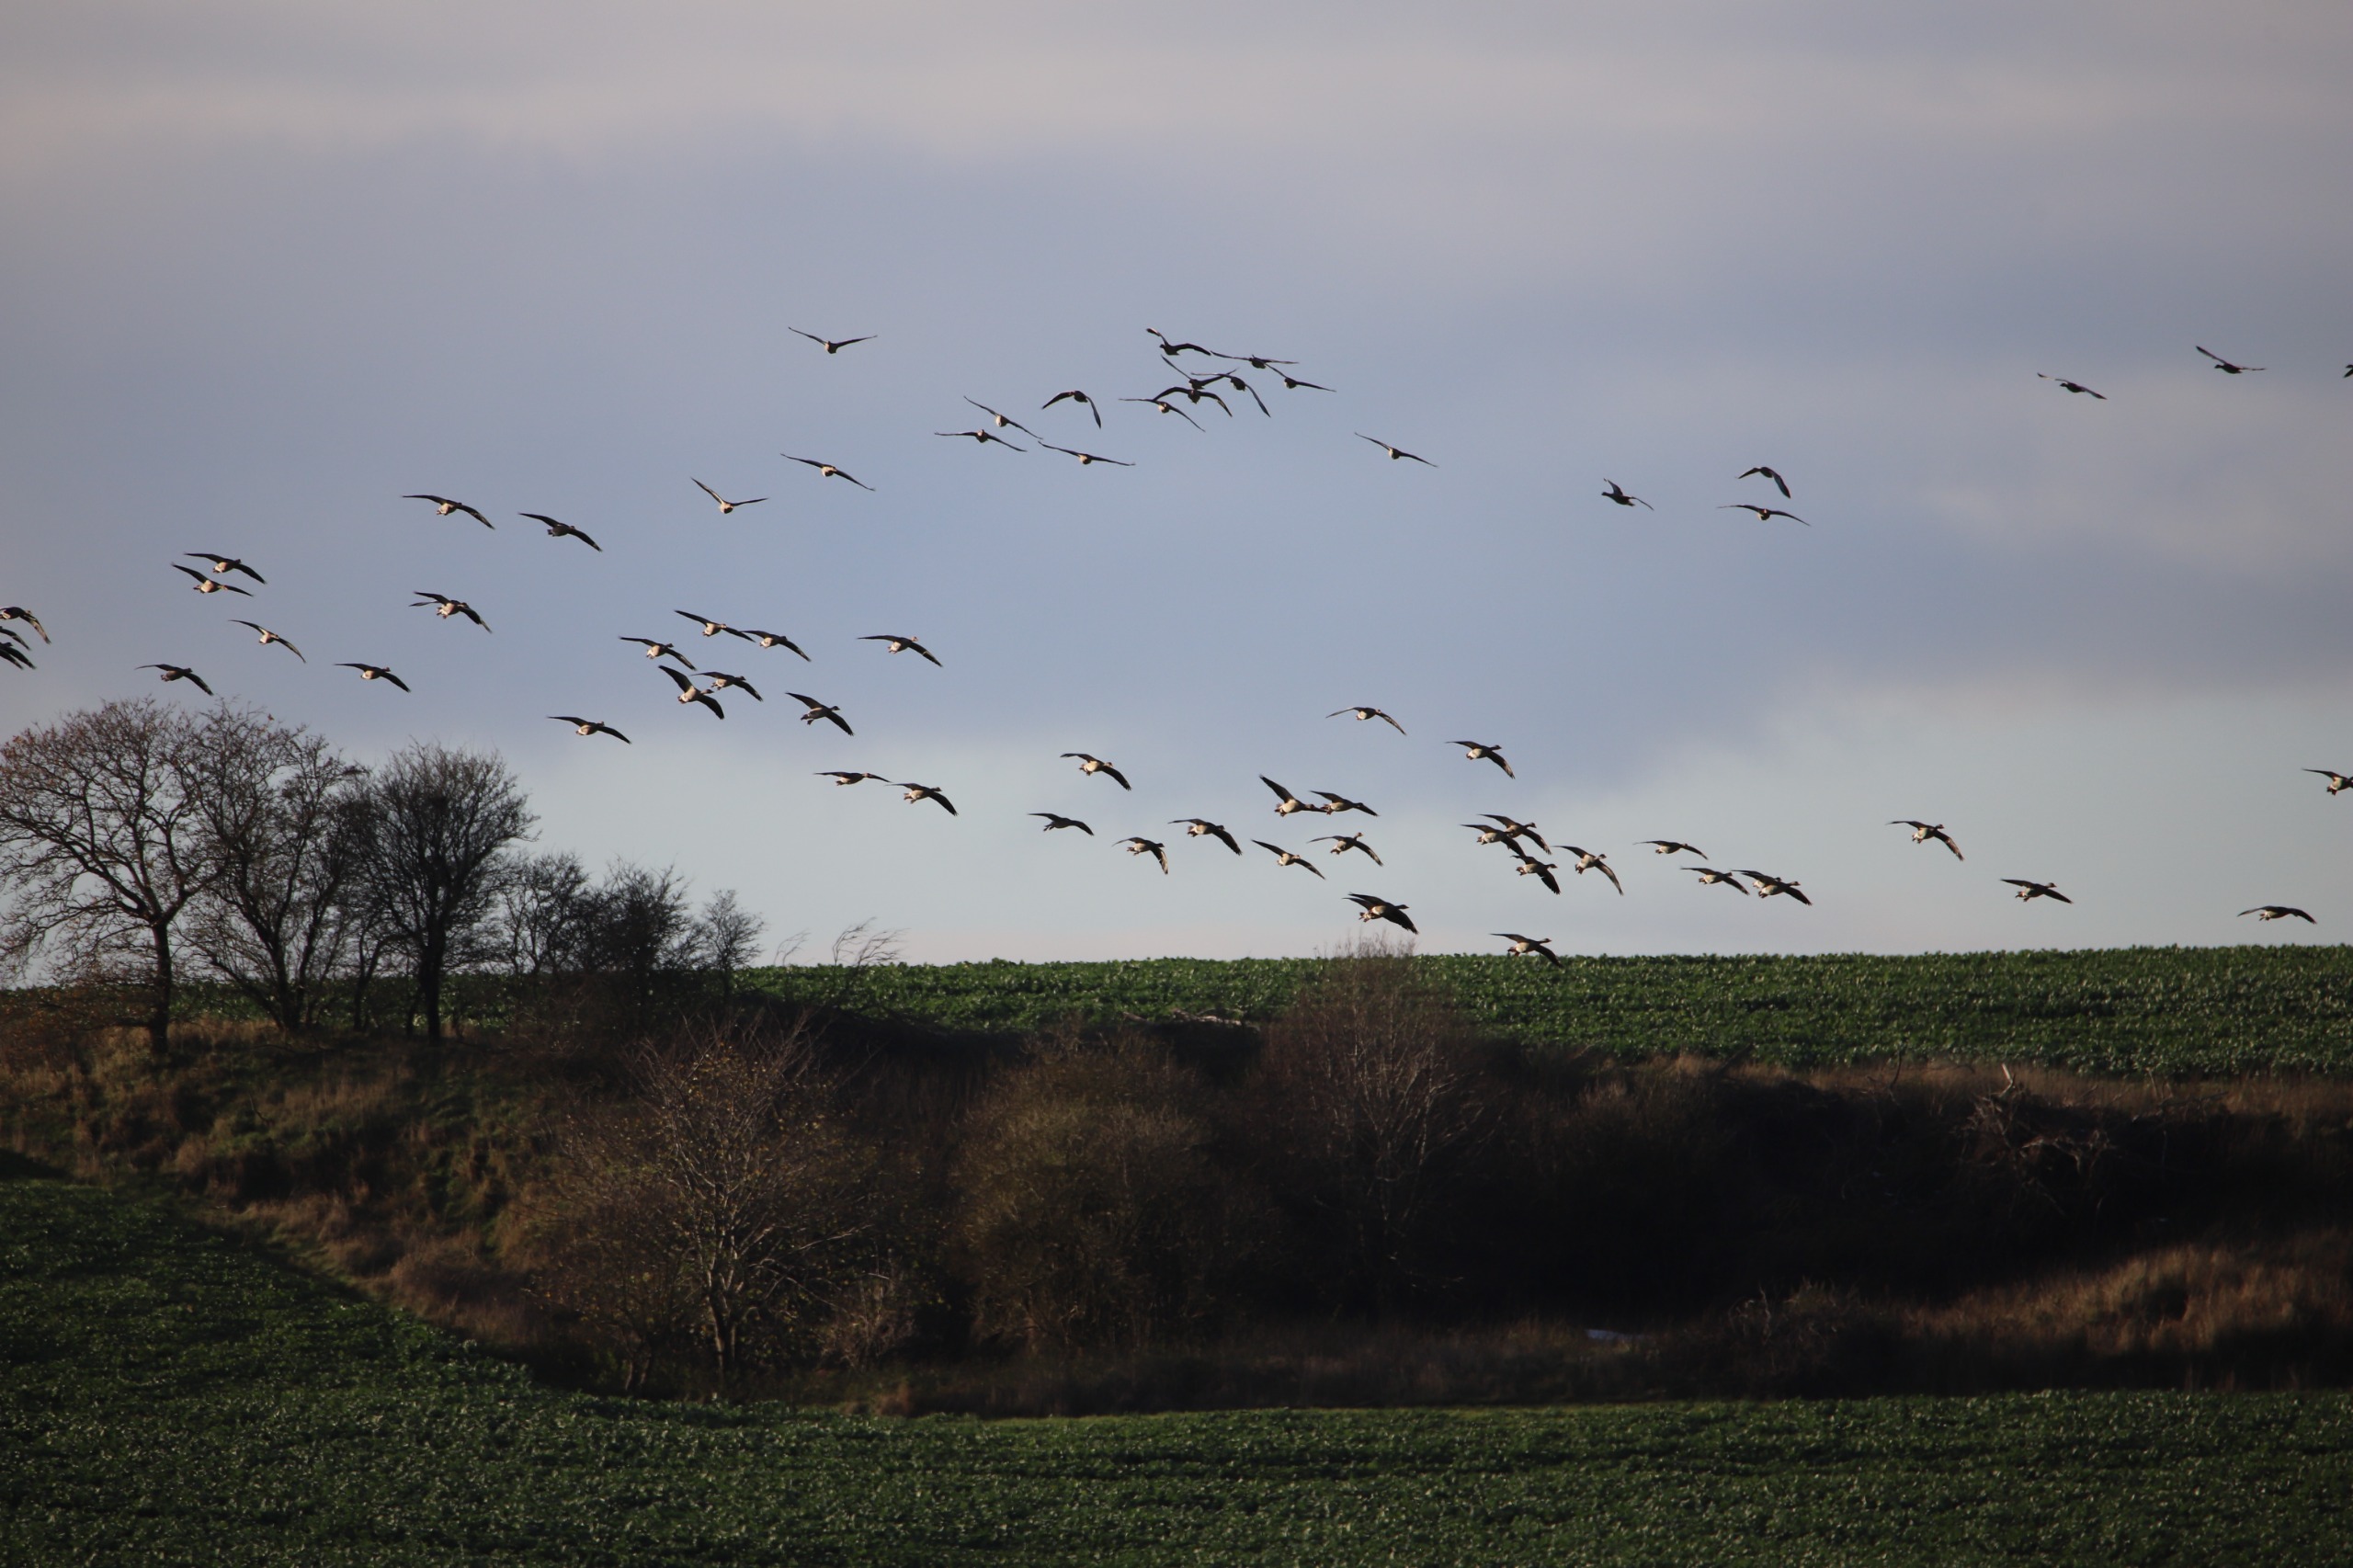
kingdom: Animalia
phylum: Chordata
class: Aves
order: Anseriformes
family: Anatidae
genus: Anser
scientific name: Anser anser
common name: Grågås
